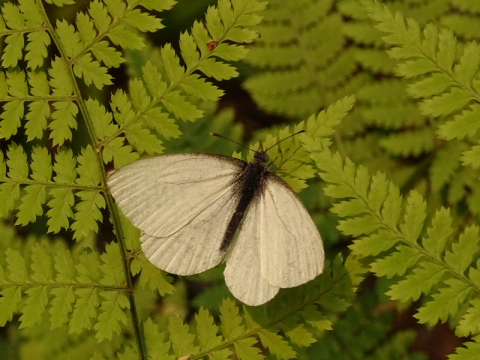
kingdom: Animalia
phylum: Arthropoda
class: Insecta
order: Lepidoptera
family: Pieridae
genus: Pieris
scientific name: Pieris oleracea
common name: Mustard White
